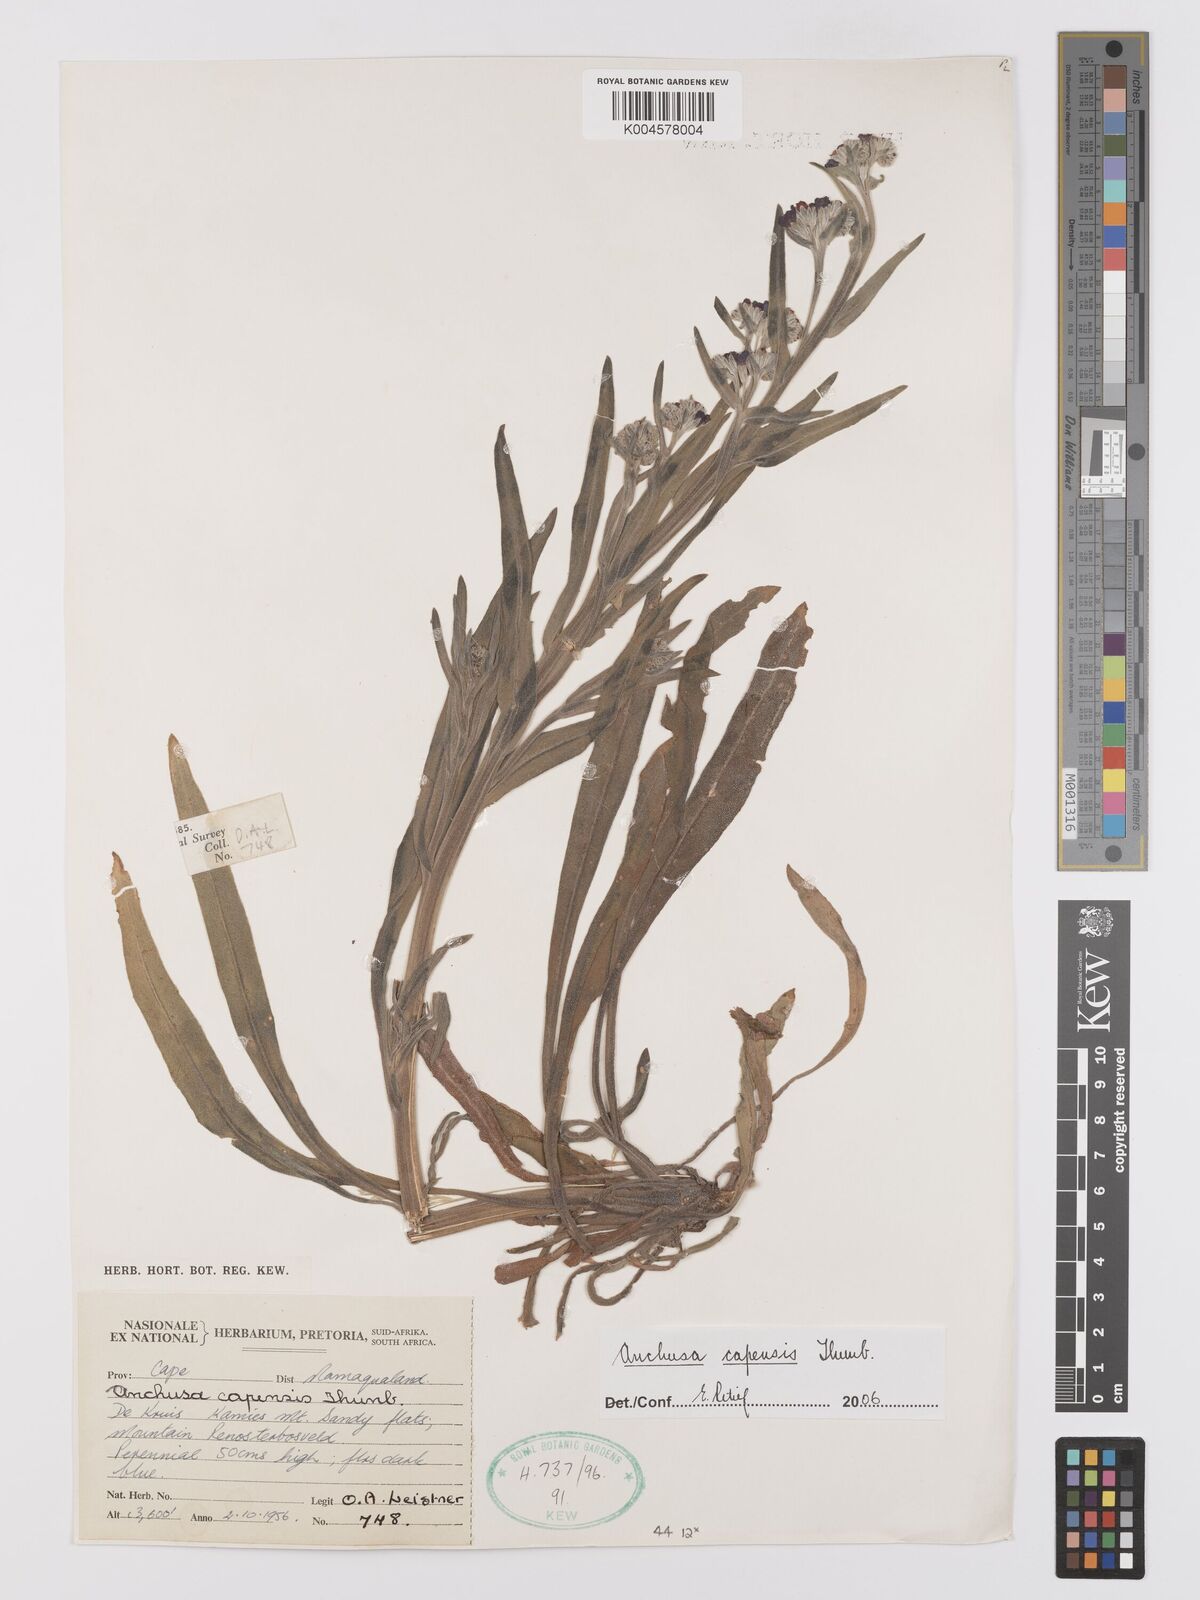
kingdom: Plantae
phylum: Tracheophyta
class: Magnoliopsida
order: Boraginales
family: Boraginaceae
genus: Anchusa
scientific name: Anchusa capensis
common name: Cape bugloss
